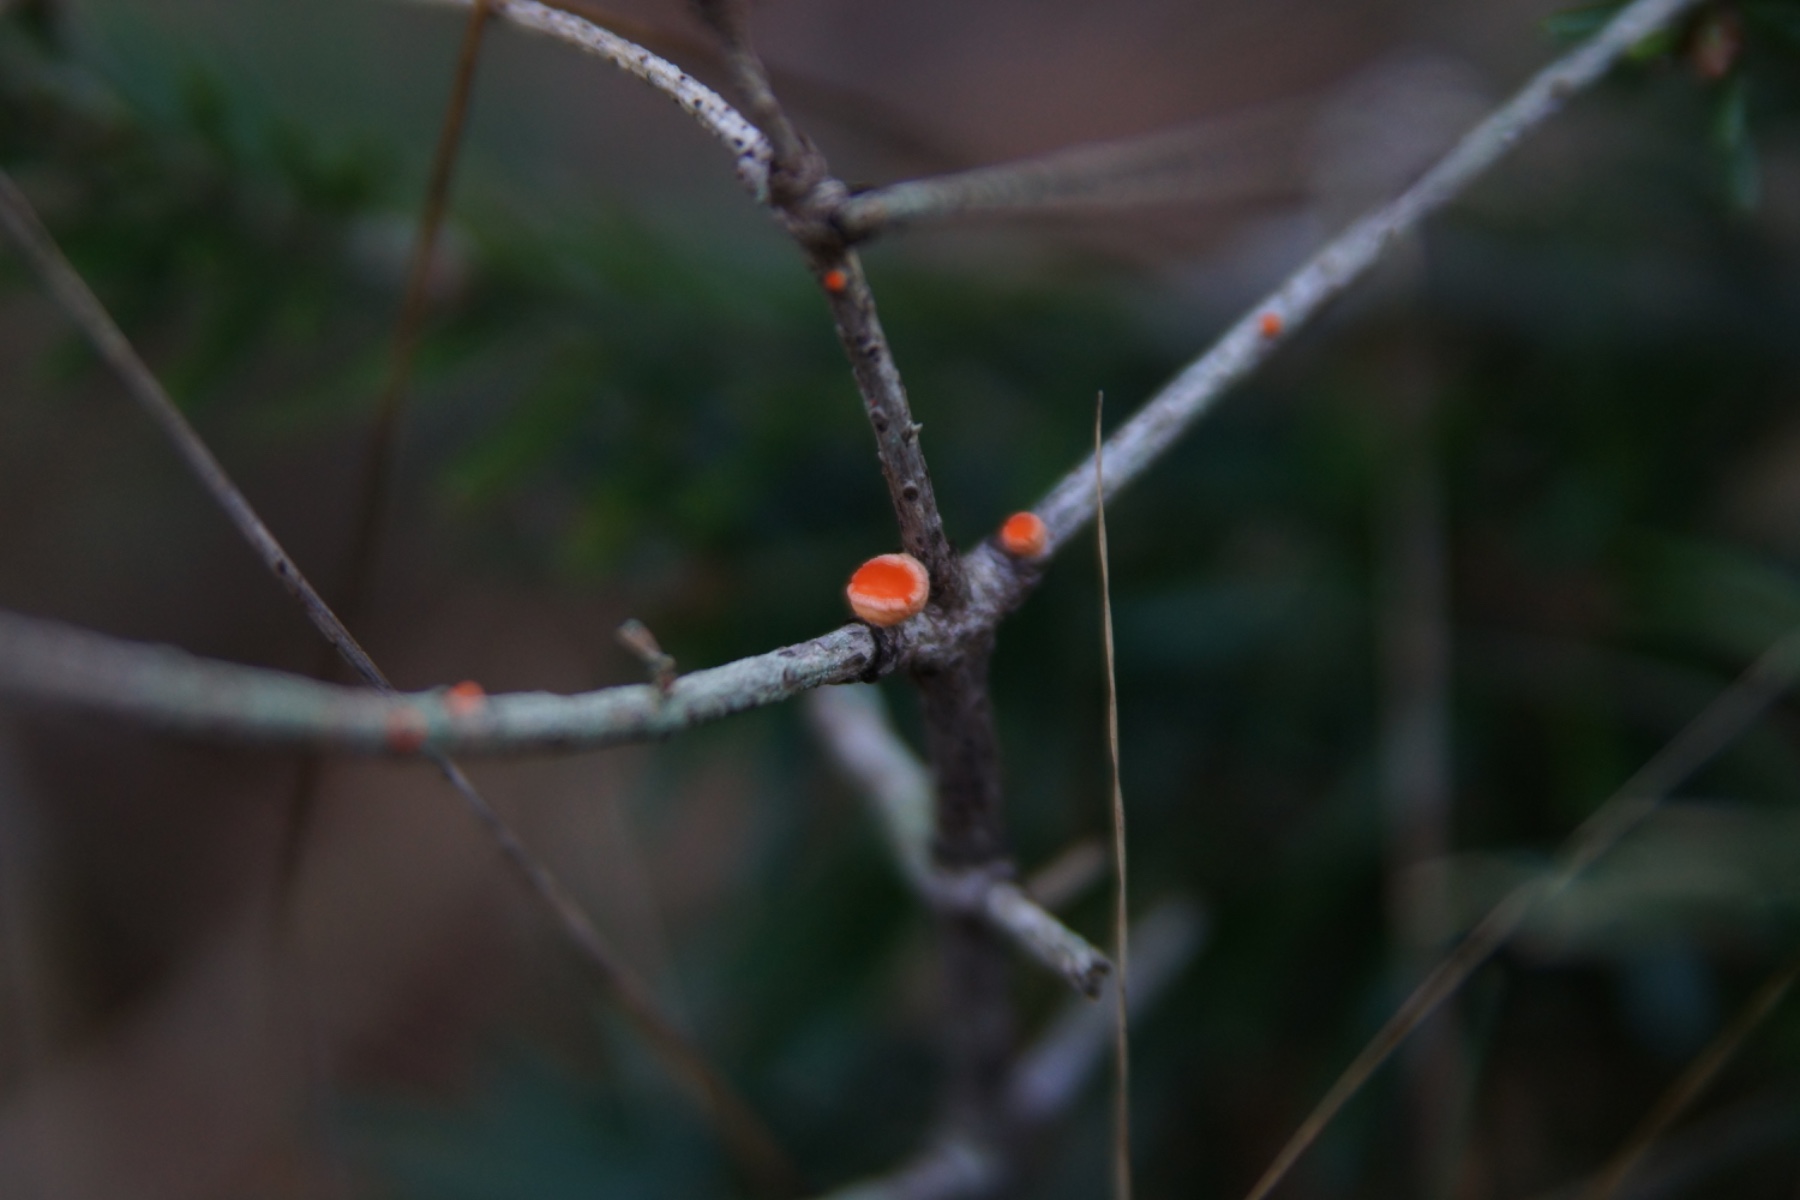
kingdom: Fungi
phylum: Ascomycota
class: Pezizomycetes
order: Pezizales
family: Sarcoscyphaceae
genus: Pithya
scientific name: Pithya vulgaris
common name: stor dukatbæger
